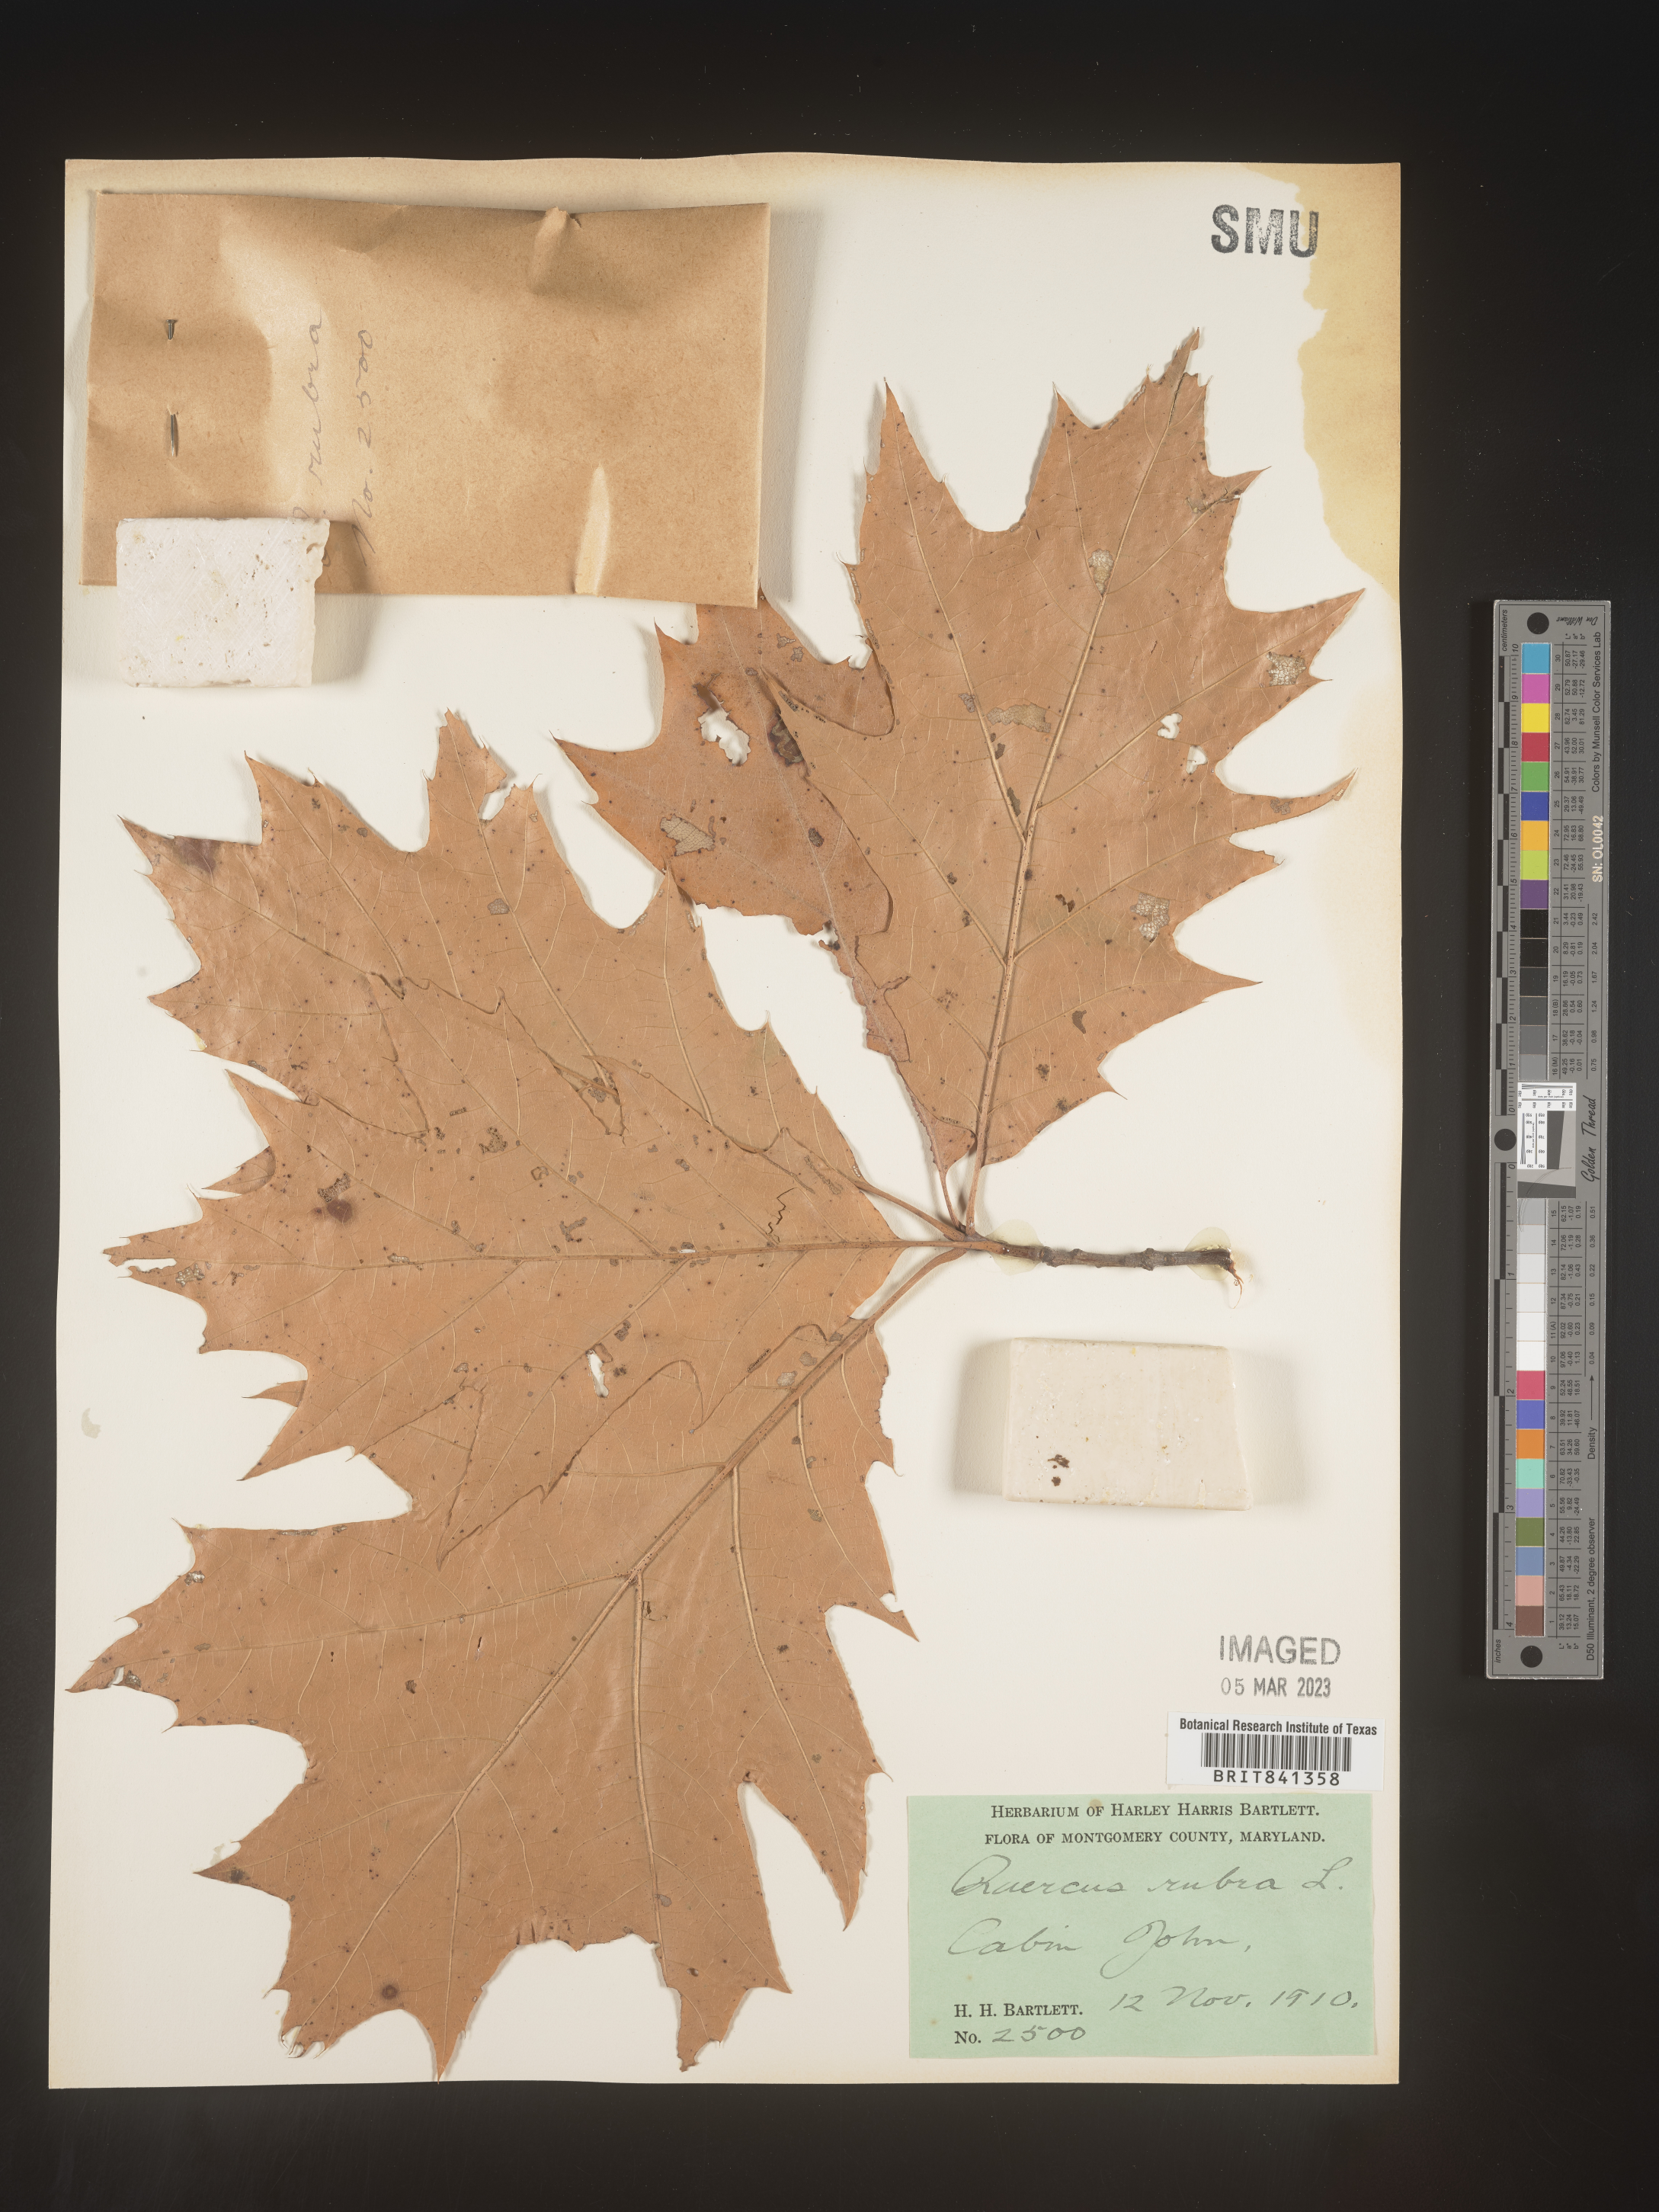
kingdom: Plantae
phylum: Tracheophyta
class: Magnoliopsida
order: Fagales
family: Fagaceae
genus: Quercus
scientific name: Quercus rubra
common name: Red oak
